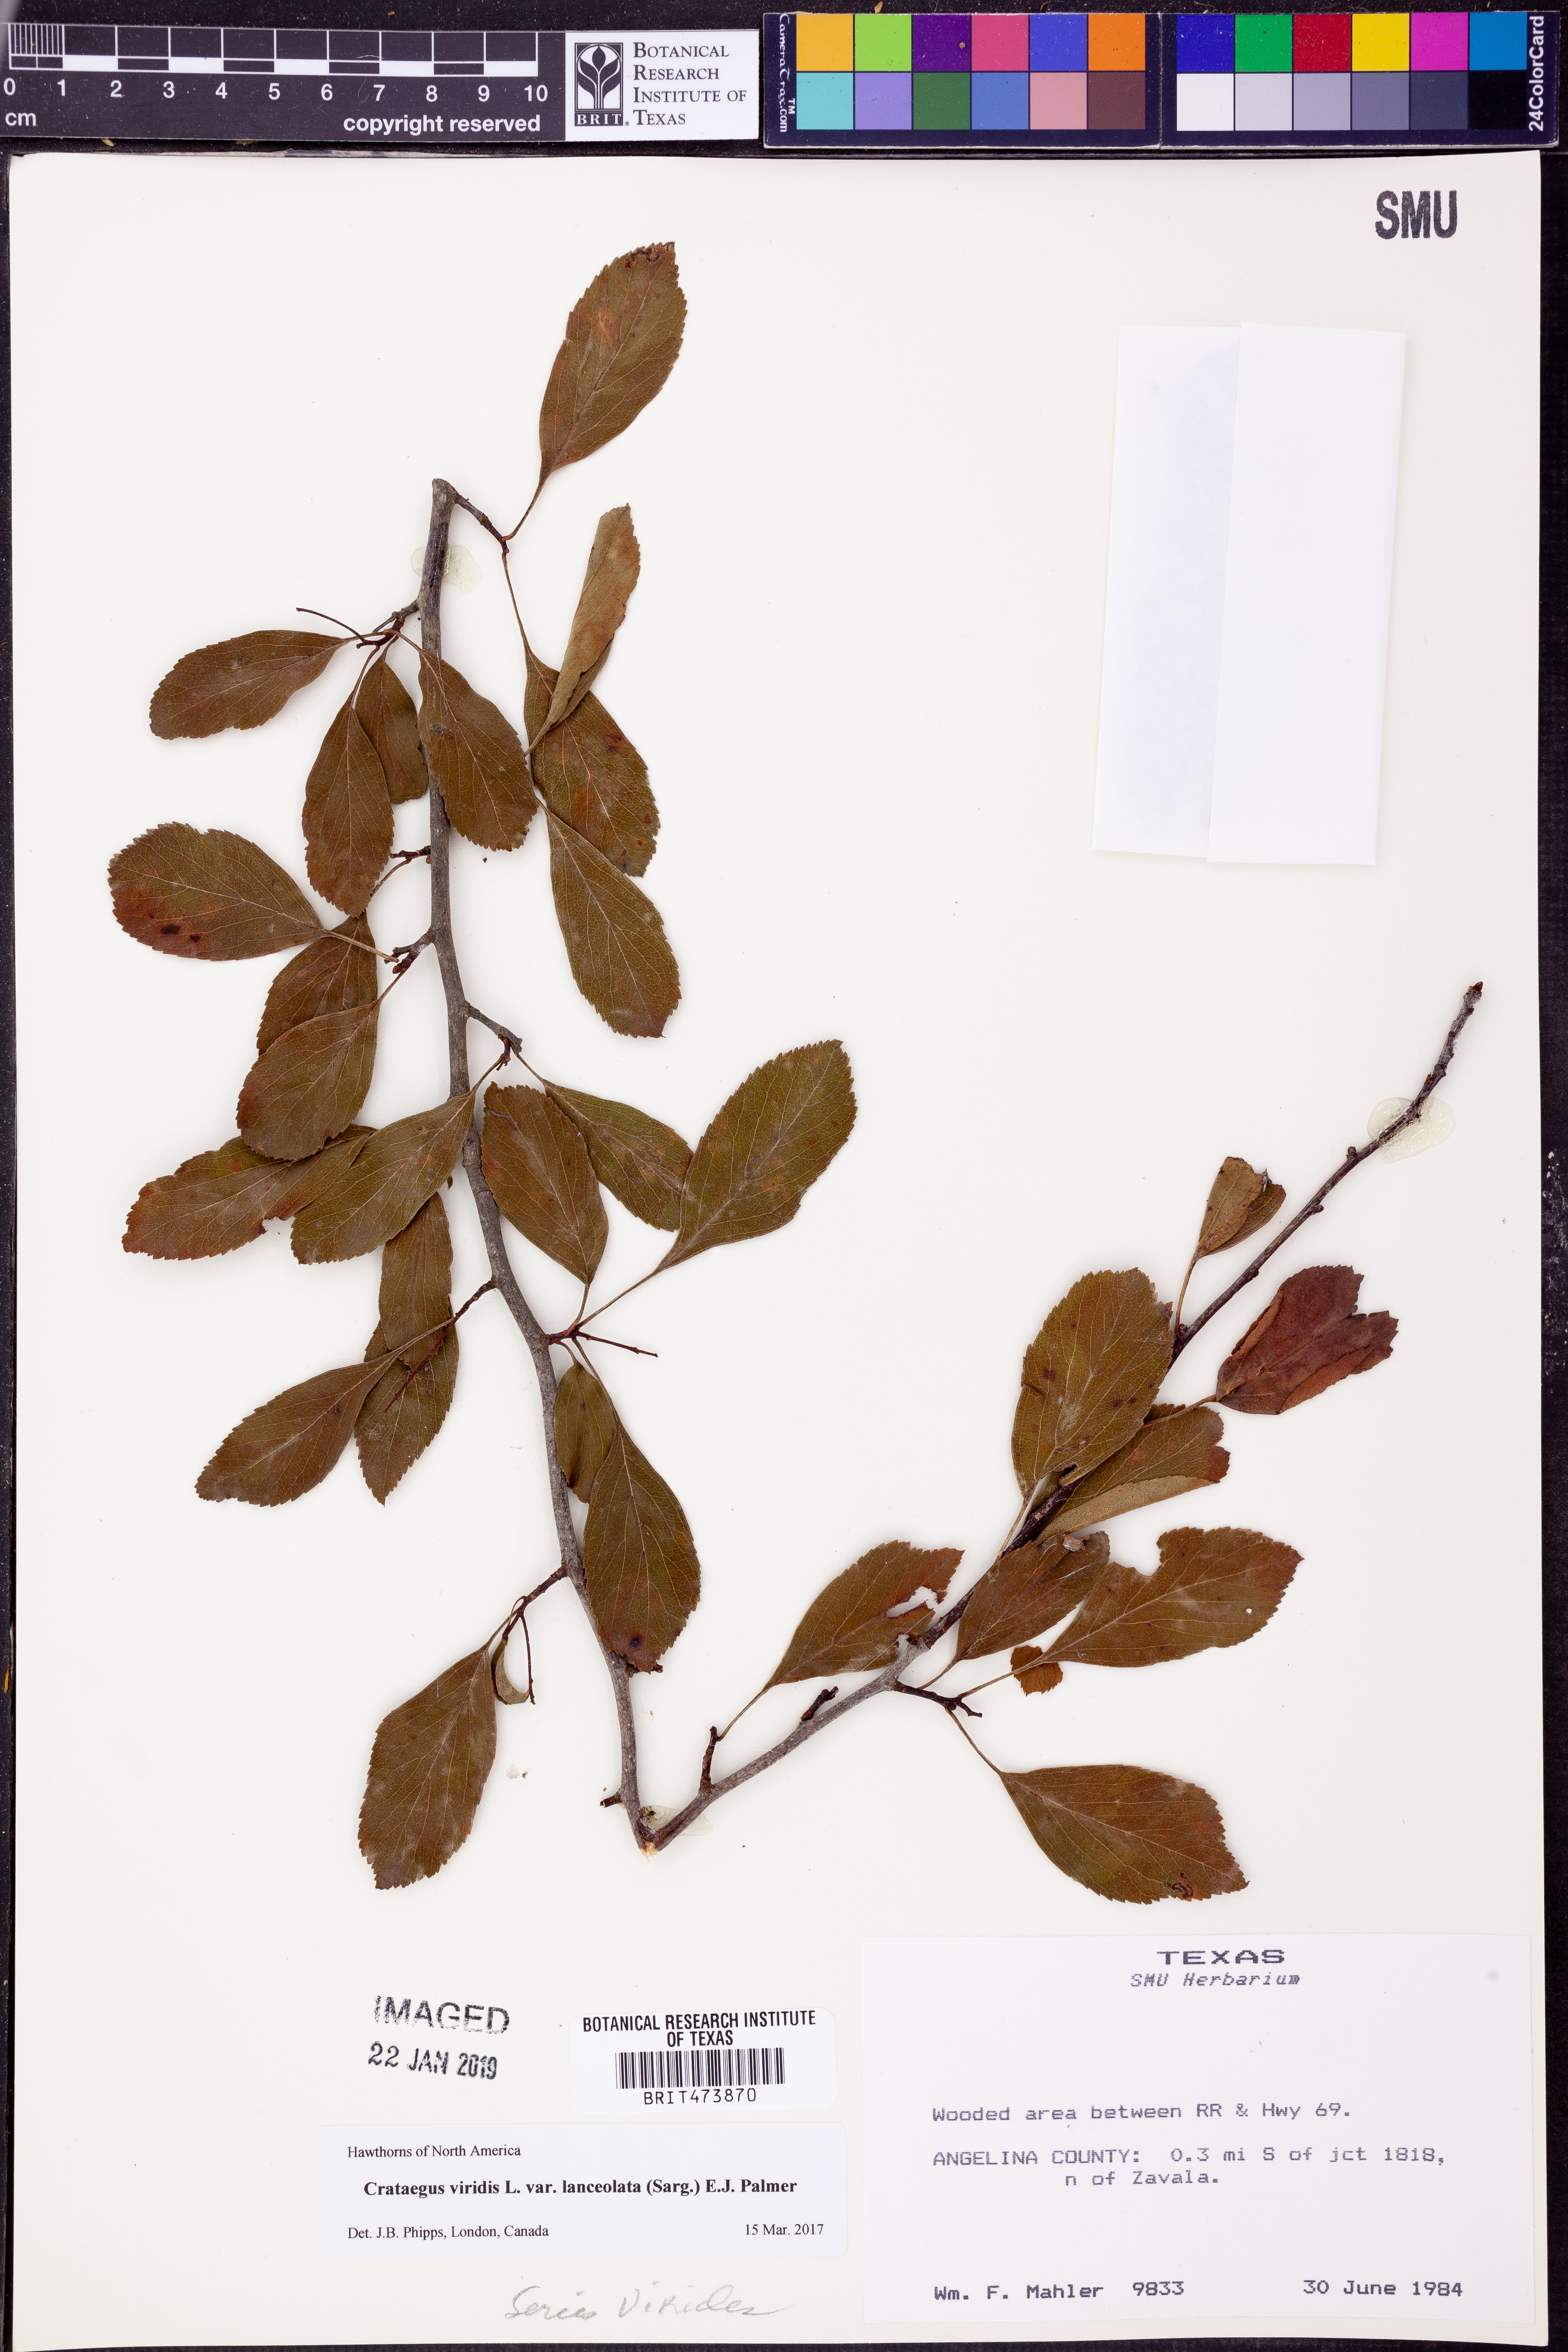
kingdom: Plantae
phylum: Tracheophyta
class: Magnoliopsida
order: Rosales
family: Rosaceae
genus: Crataegus
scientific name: Crataegus viridis
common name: Southernthorn
